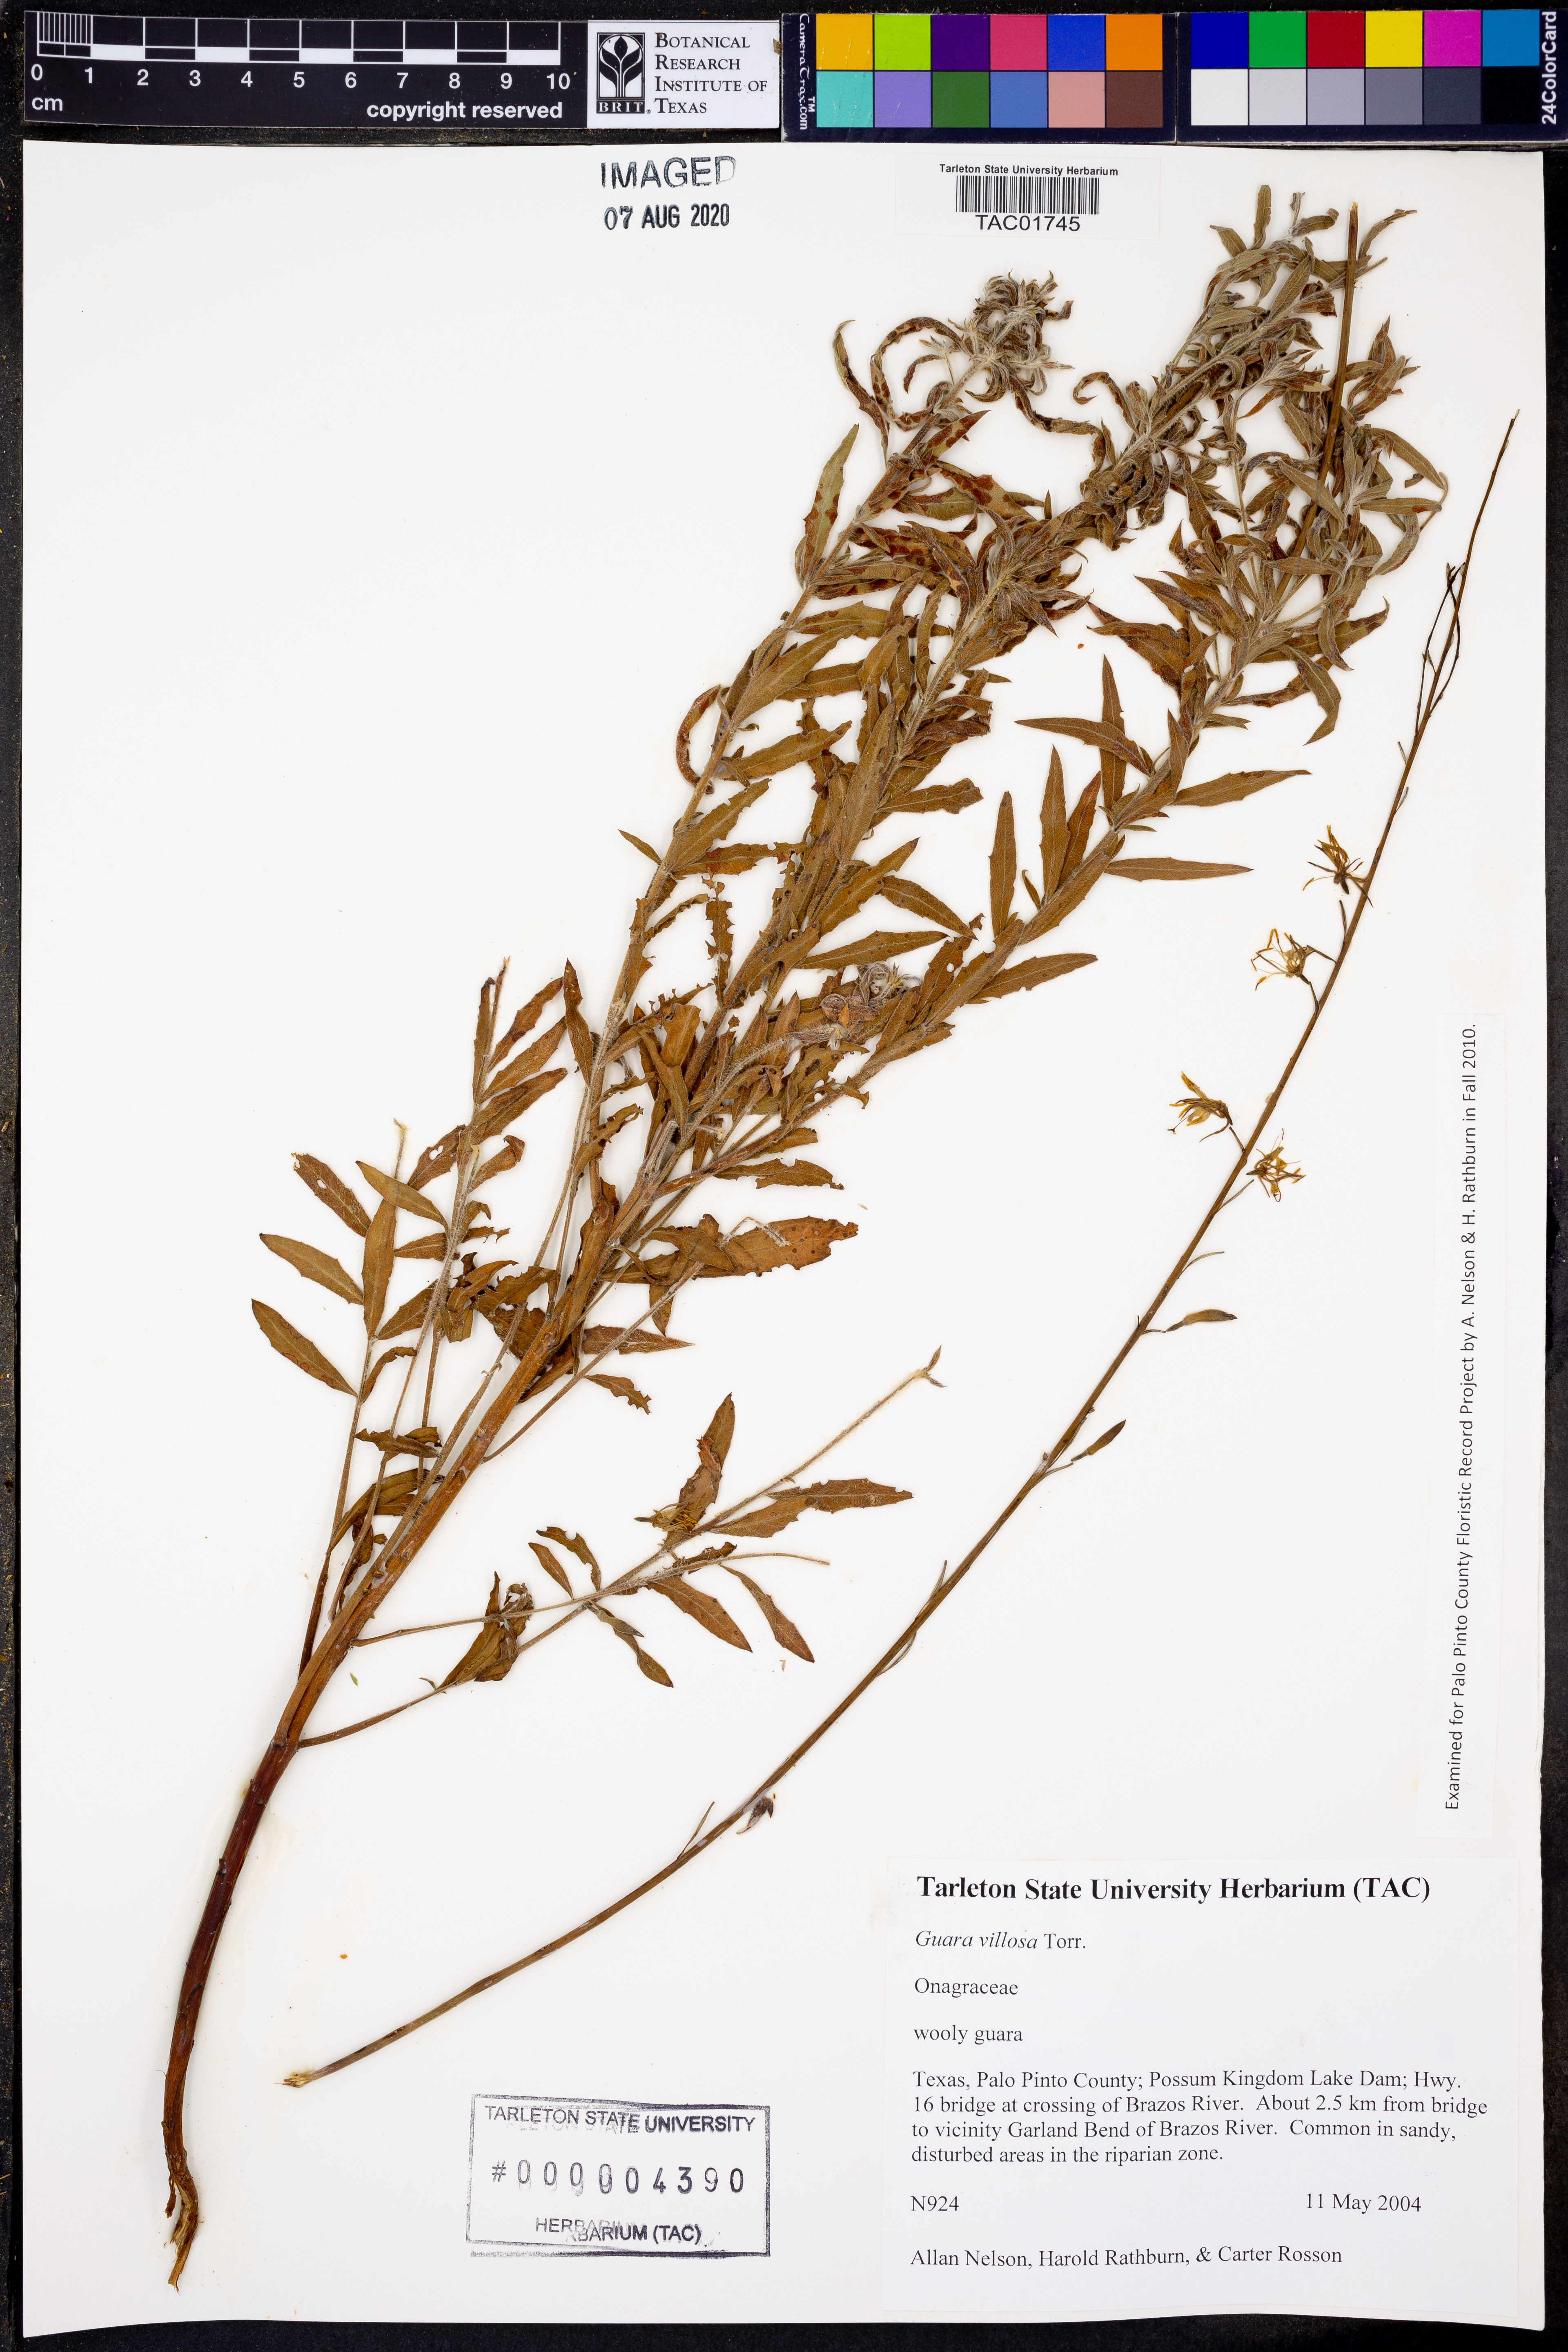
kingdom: Plantae
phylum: Tracheophyta
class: Magnoliopsida
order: Myrtales
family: Onagraceae
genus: Oenothera
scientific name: Oenothera cinerea
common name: Woolly beeblossom
